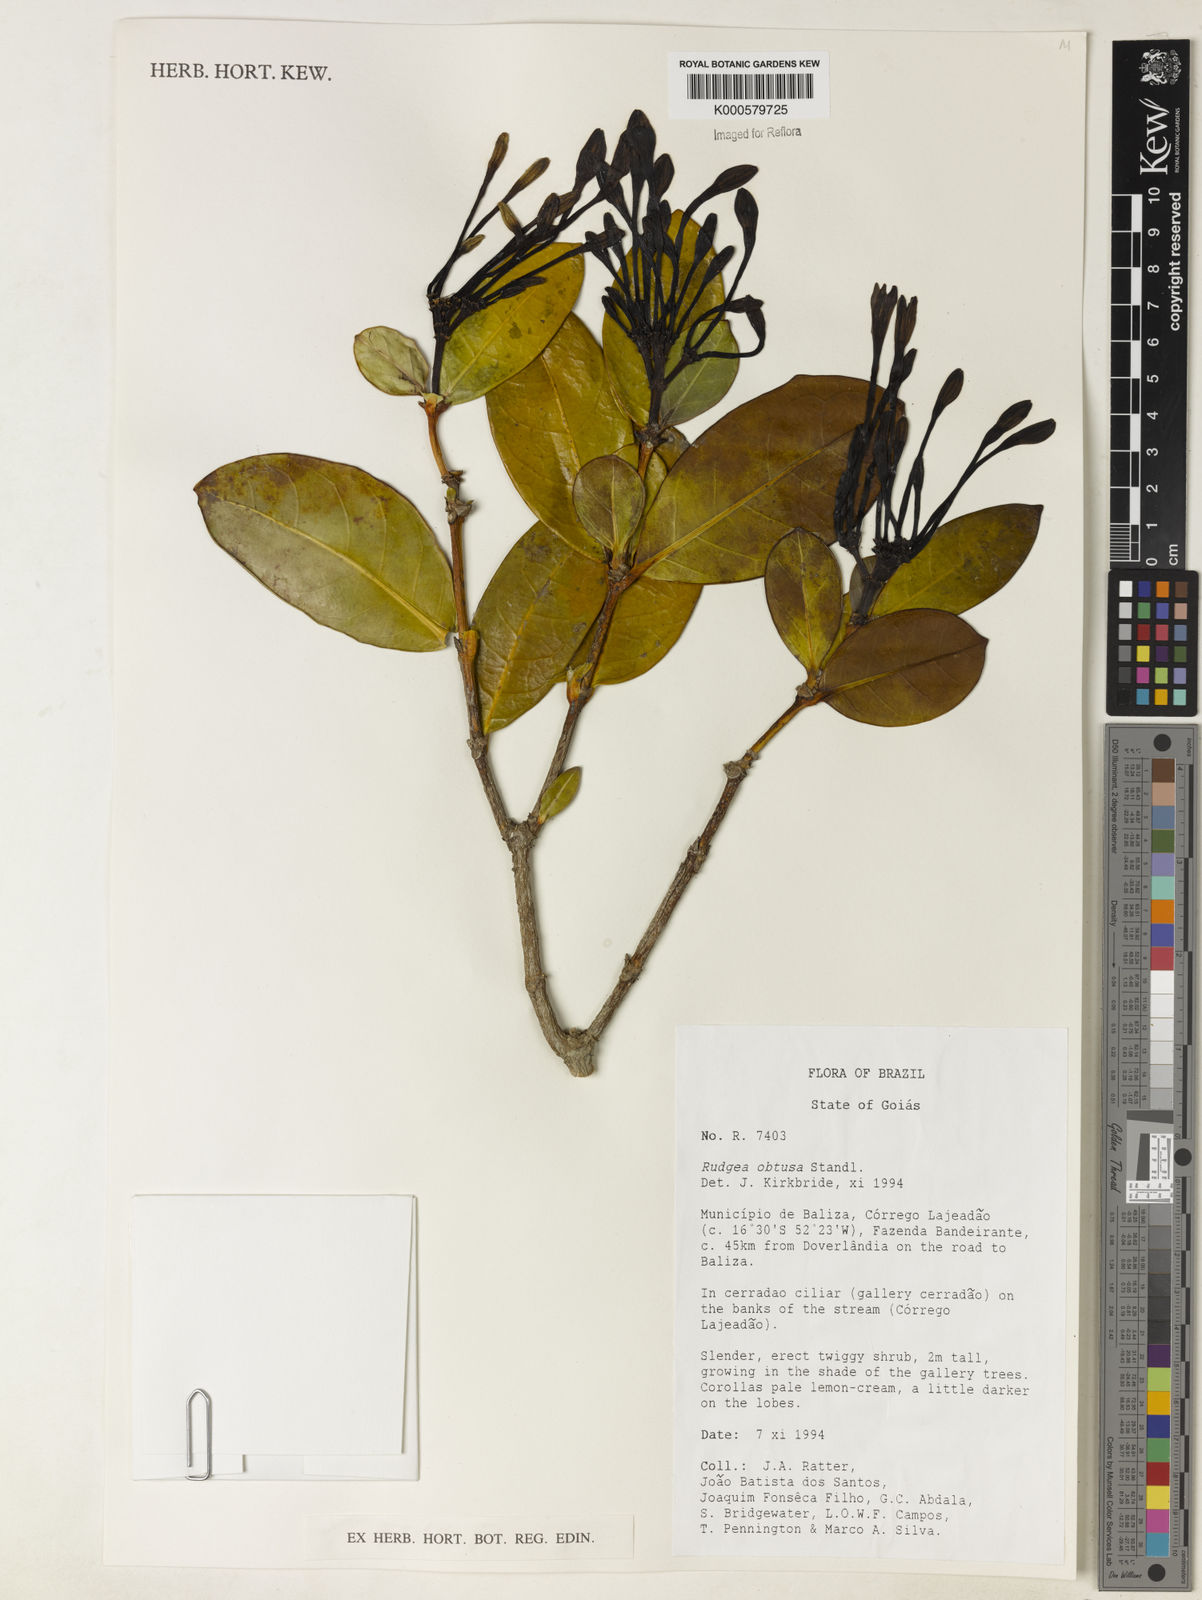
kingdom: Plantae
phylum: Tracheophyta
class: Magnoliopsida
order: Gentianales
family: Rubiaceae
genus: Rudgea
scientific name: Rudgea goyazensis
